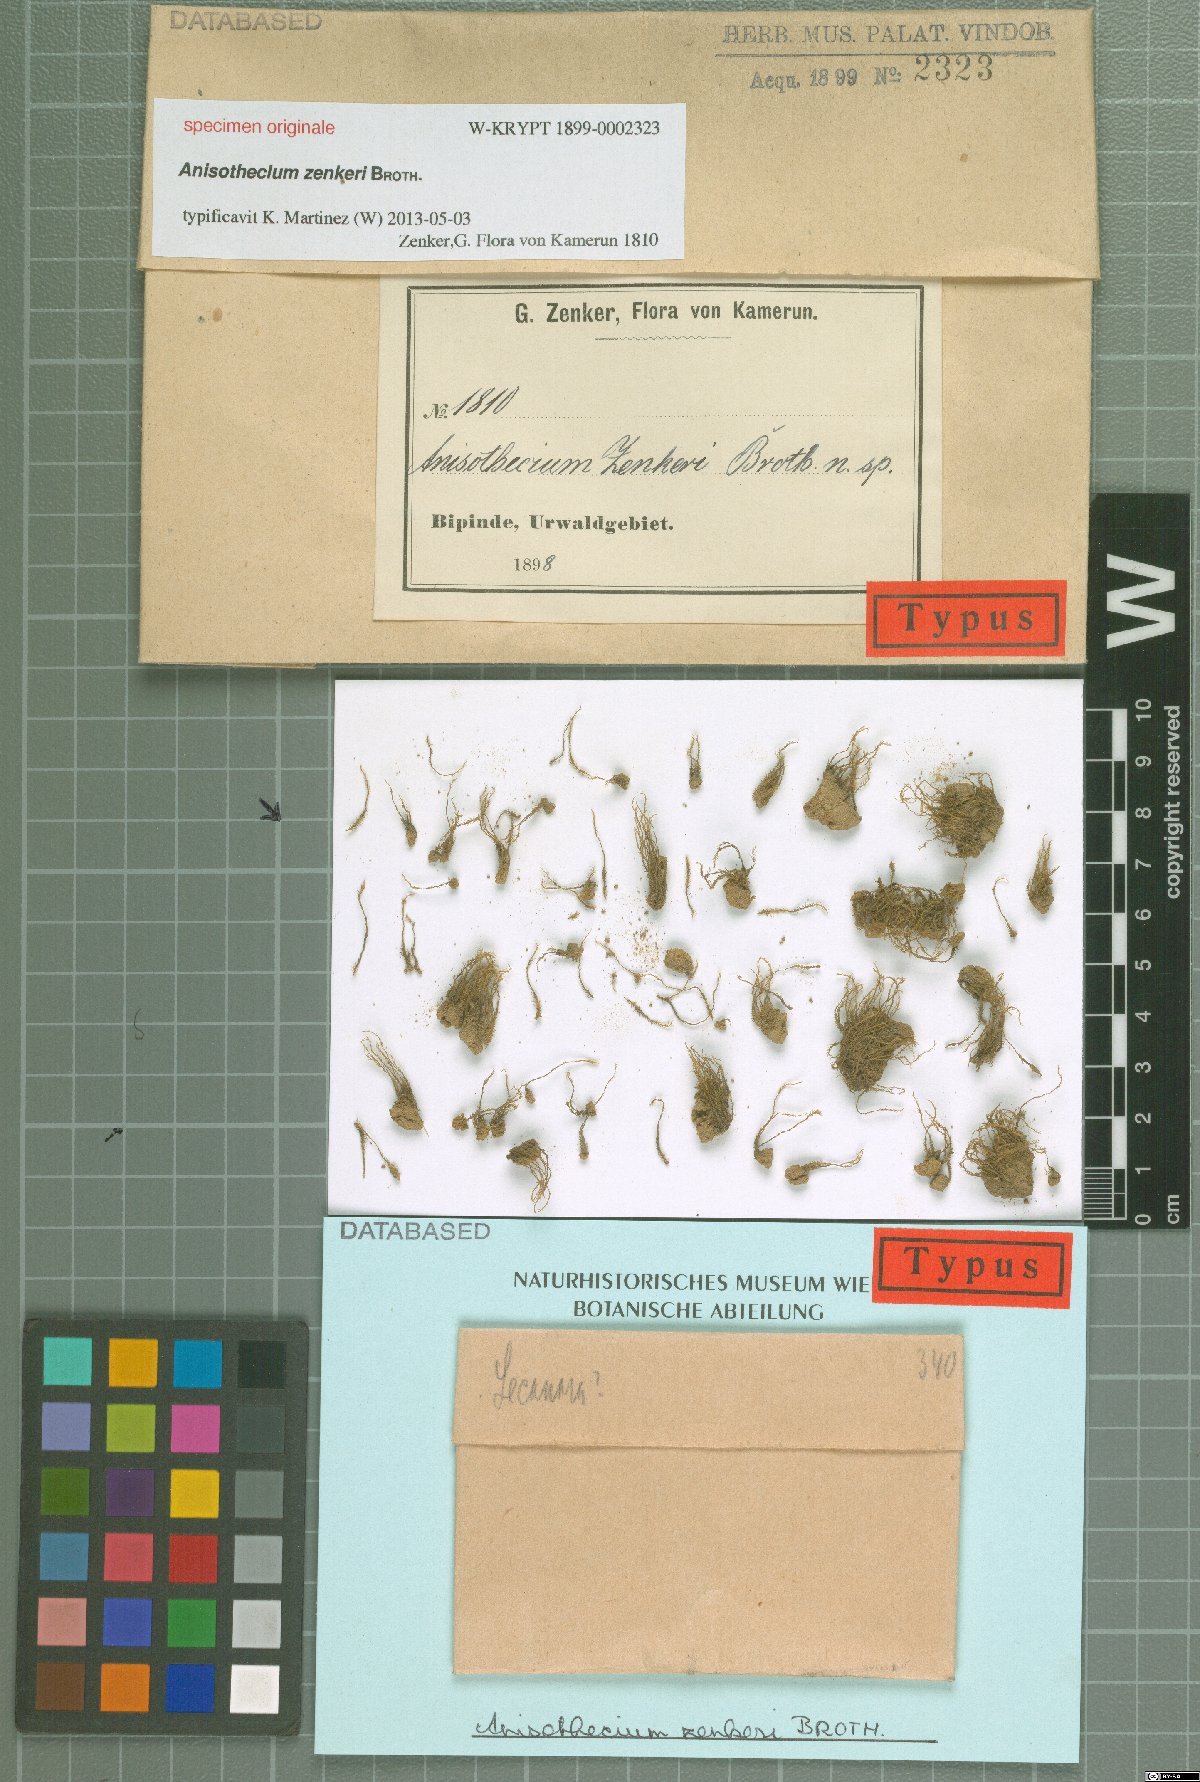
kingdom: Plantae
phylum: Bryophyta
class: Bryopsida
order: Dicranales
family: Dicranaceae
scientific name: Dicranaceae
